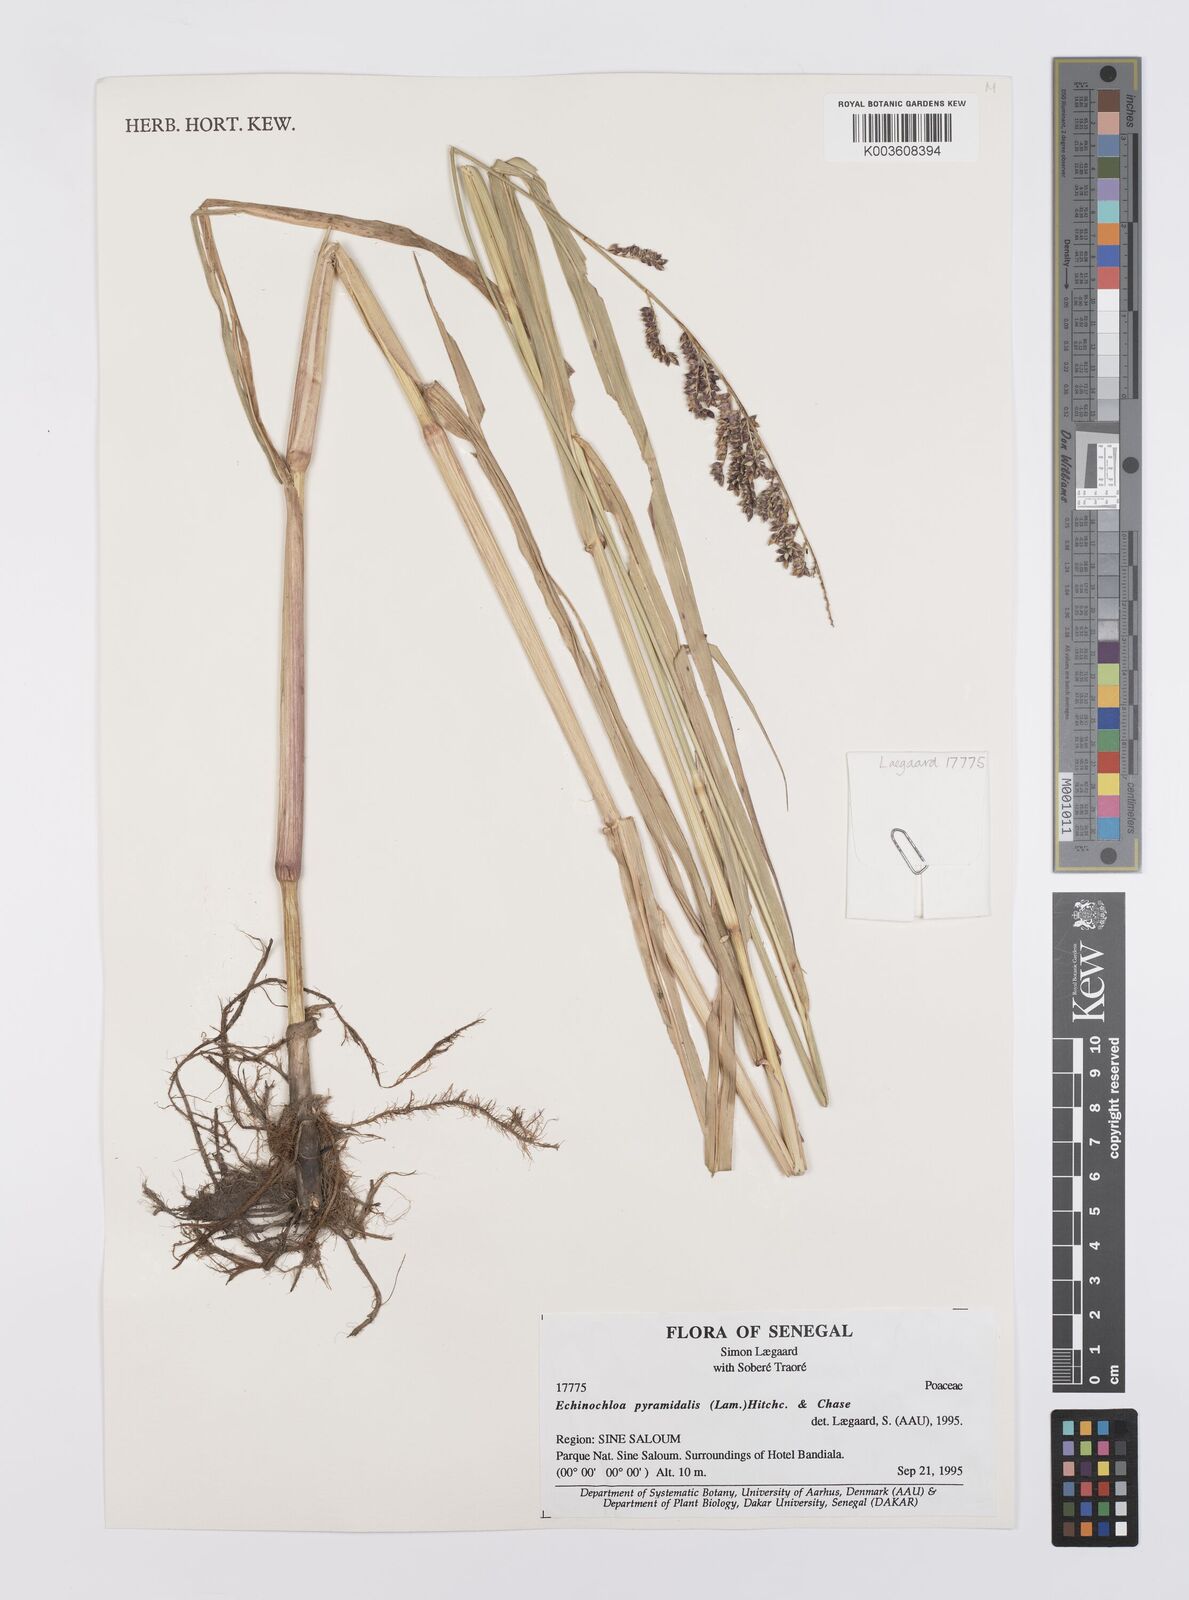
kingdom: Plantae
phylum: Tracheophyta
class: Liliopsida
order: Poales
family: Poaceae
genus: Echinochloa
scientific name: Echinochloa pyramidalis
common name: Antelope grass
